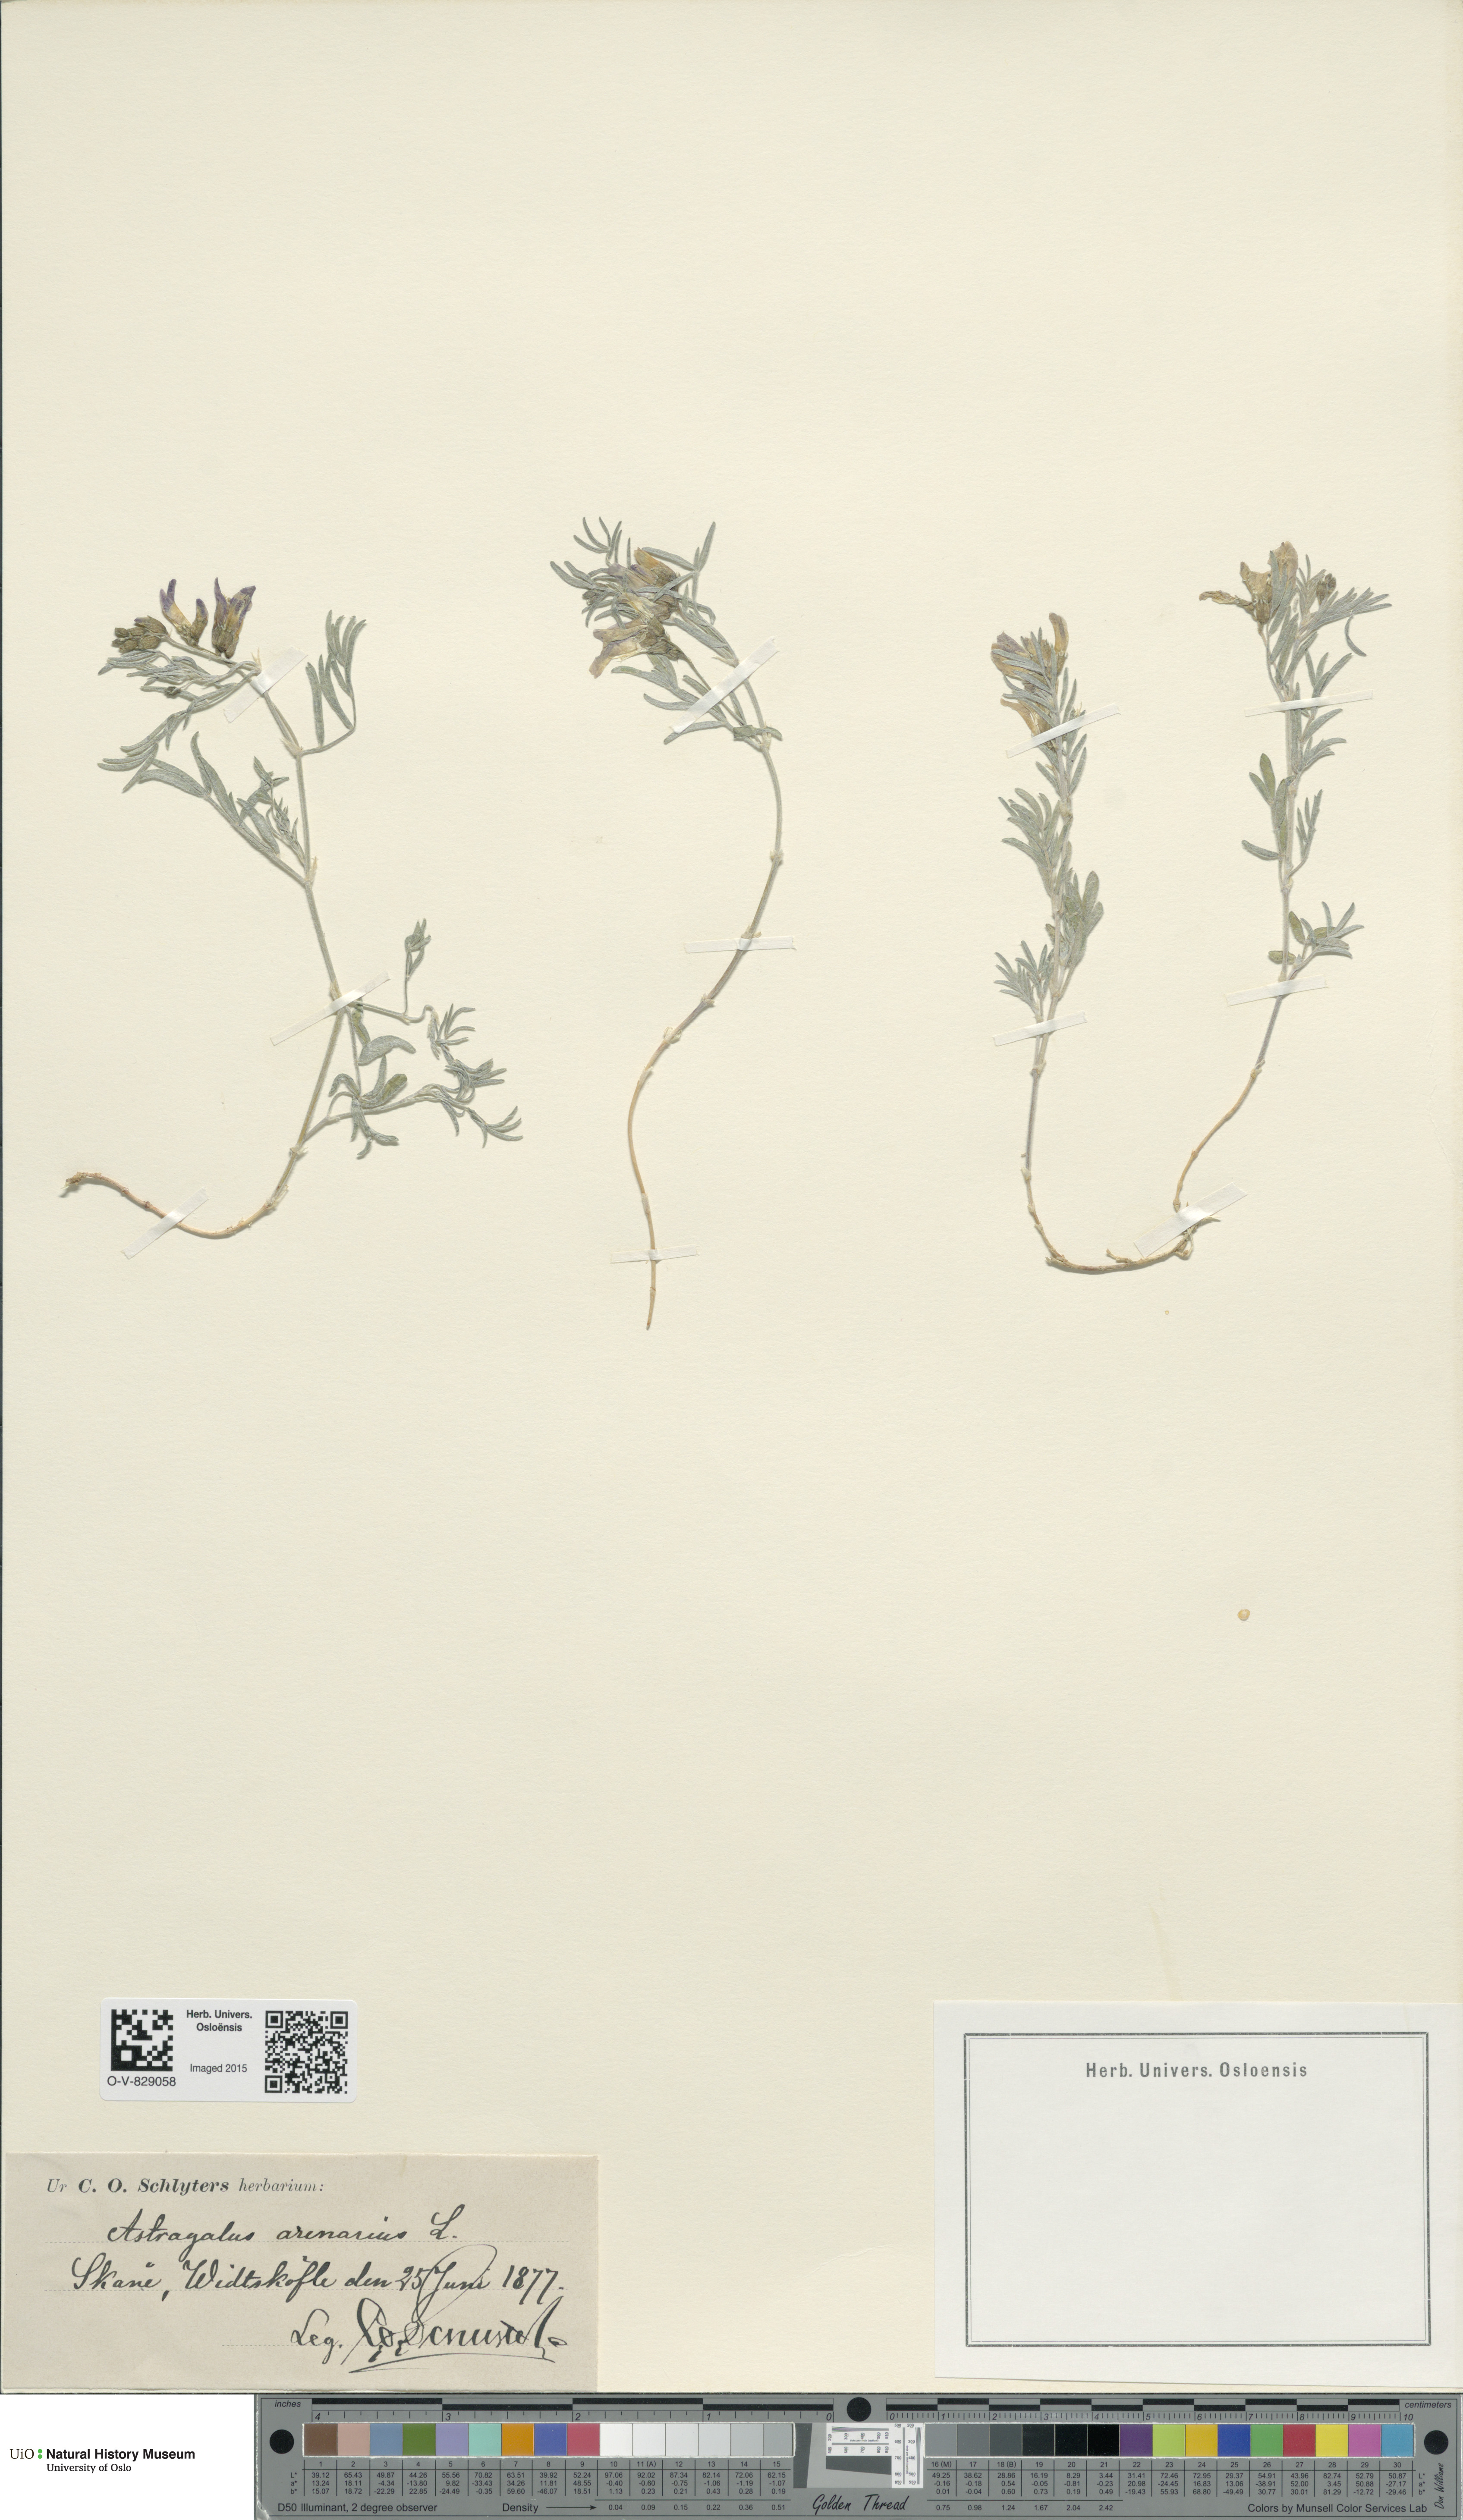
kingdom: Plantae
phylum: Tracheophyta
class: Magnoliopsida
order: Fabales
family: Fabaceae
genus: Astragalus
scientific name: Astragalus arenarius
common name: Arenarious milk-vetch
